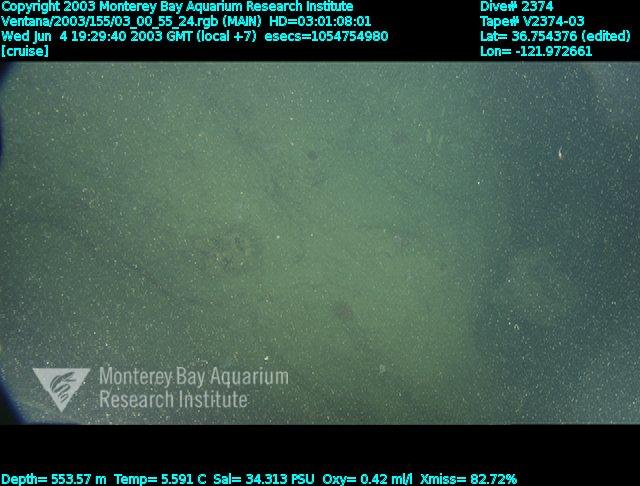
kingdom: Animalia
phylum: Porifera
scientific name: Porifera
